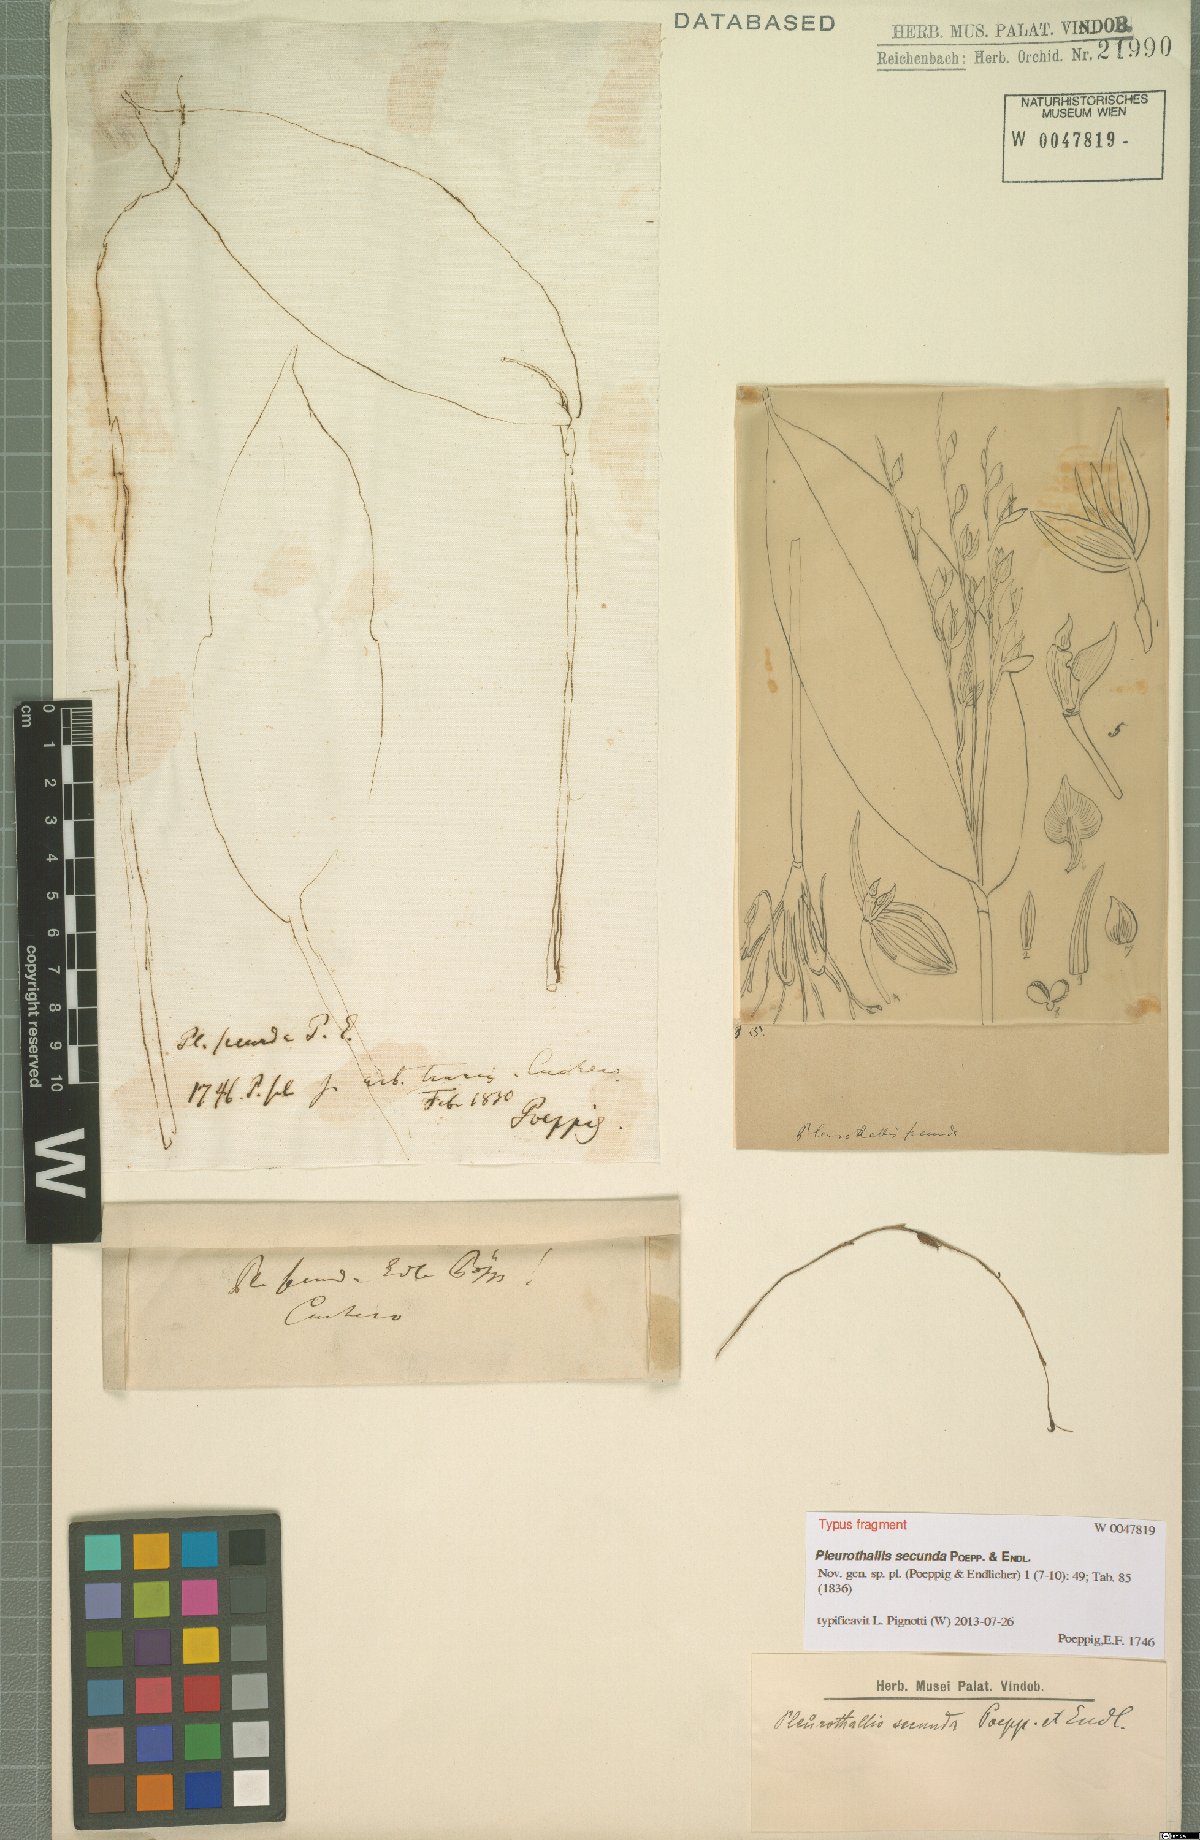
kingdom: Plantae
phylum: Tracheophyta
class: Liliopsida
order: Asparagales
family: Orchidaceae
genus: Pleurothallis
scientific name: Pleurothallis secunda
